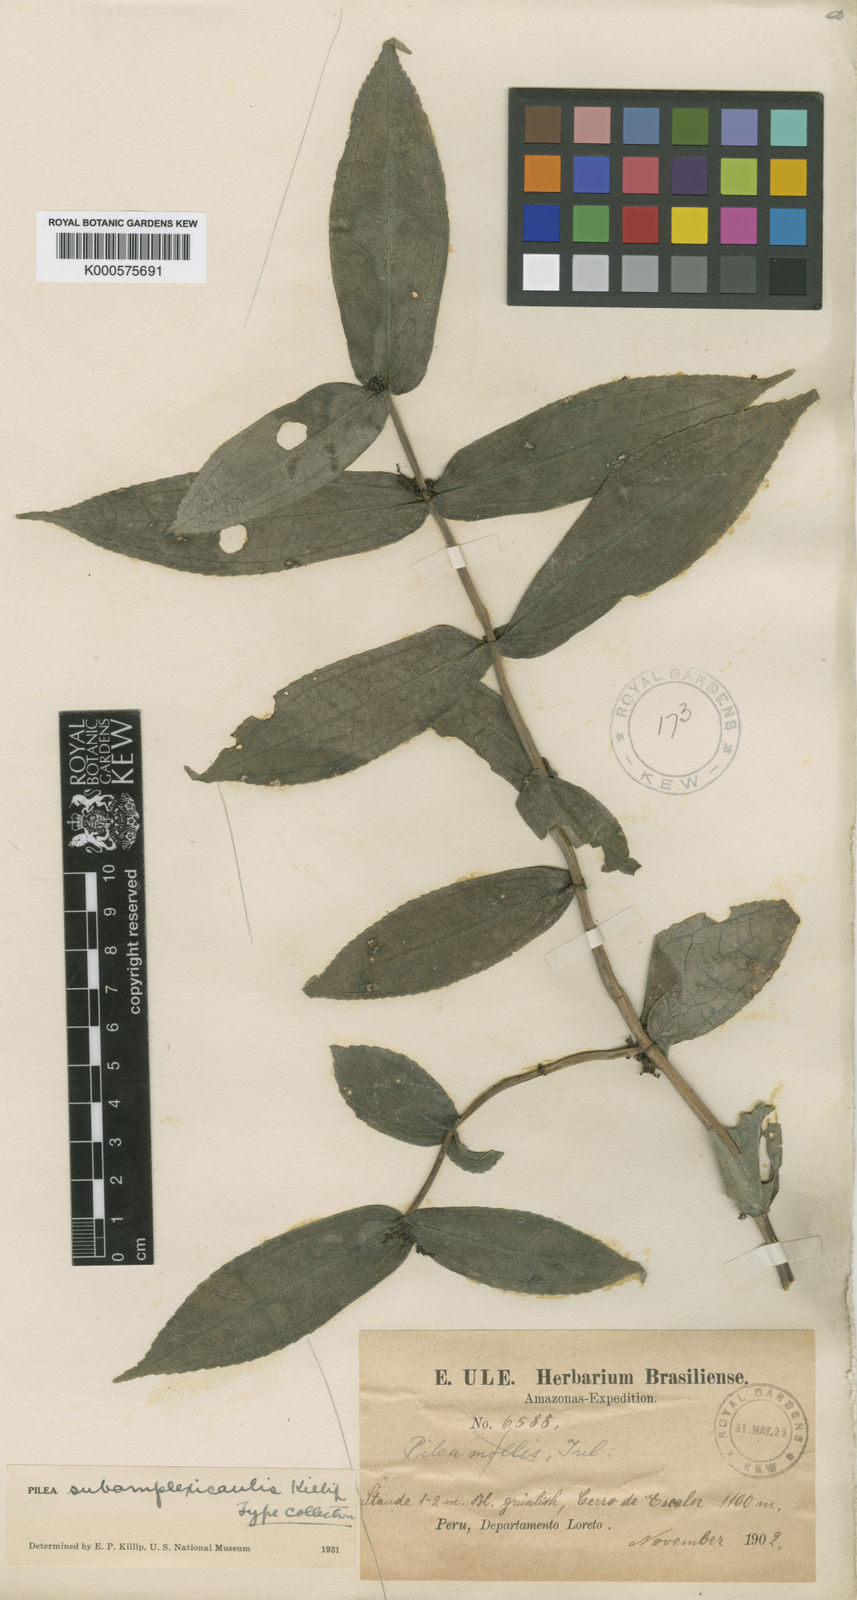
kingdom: Plantae
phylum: Tracheophyta
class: Magnoliopsida
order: Rosales
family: Urticaceae
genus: Pilea
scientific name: Pilea subamplexicaulis
